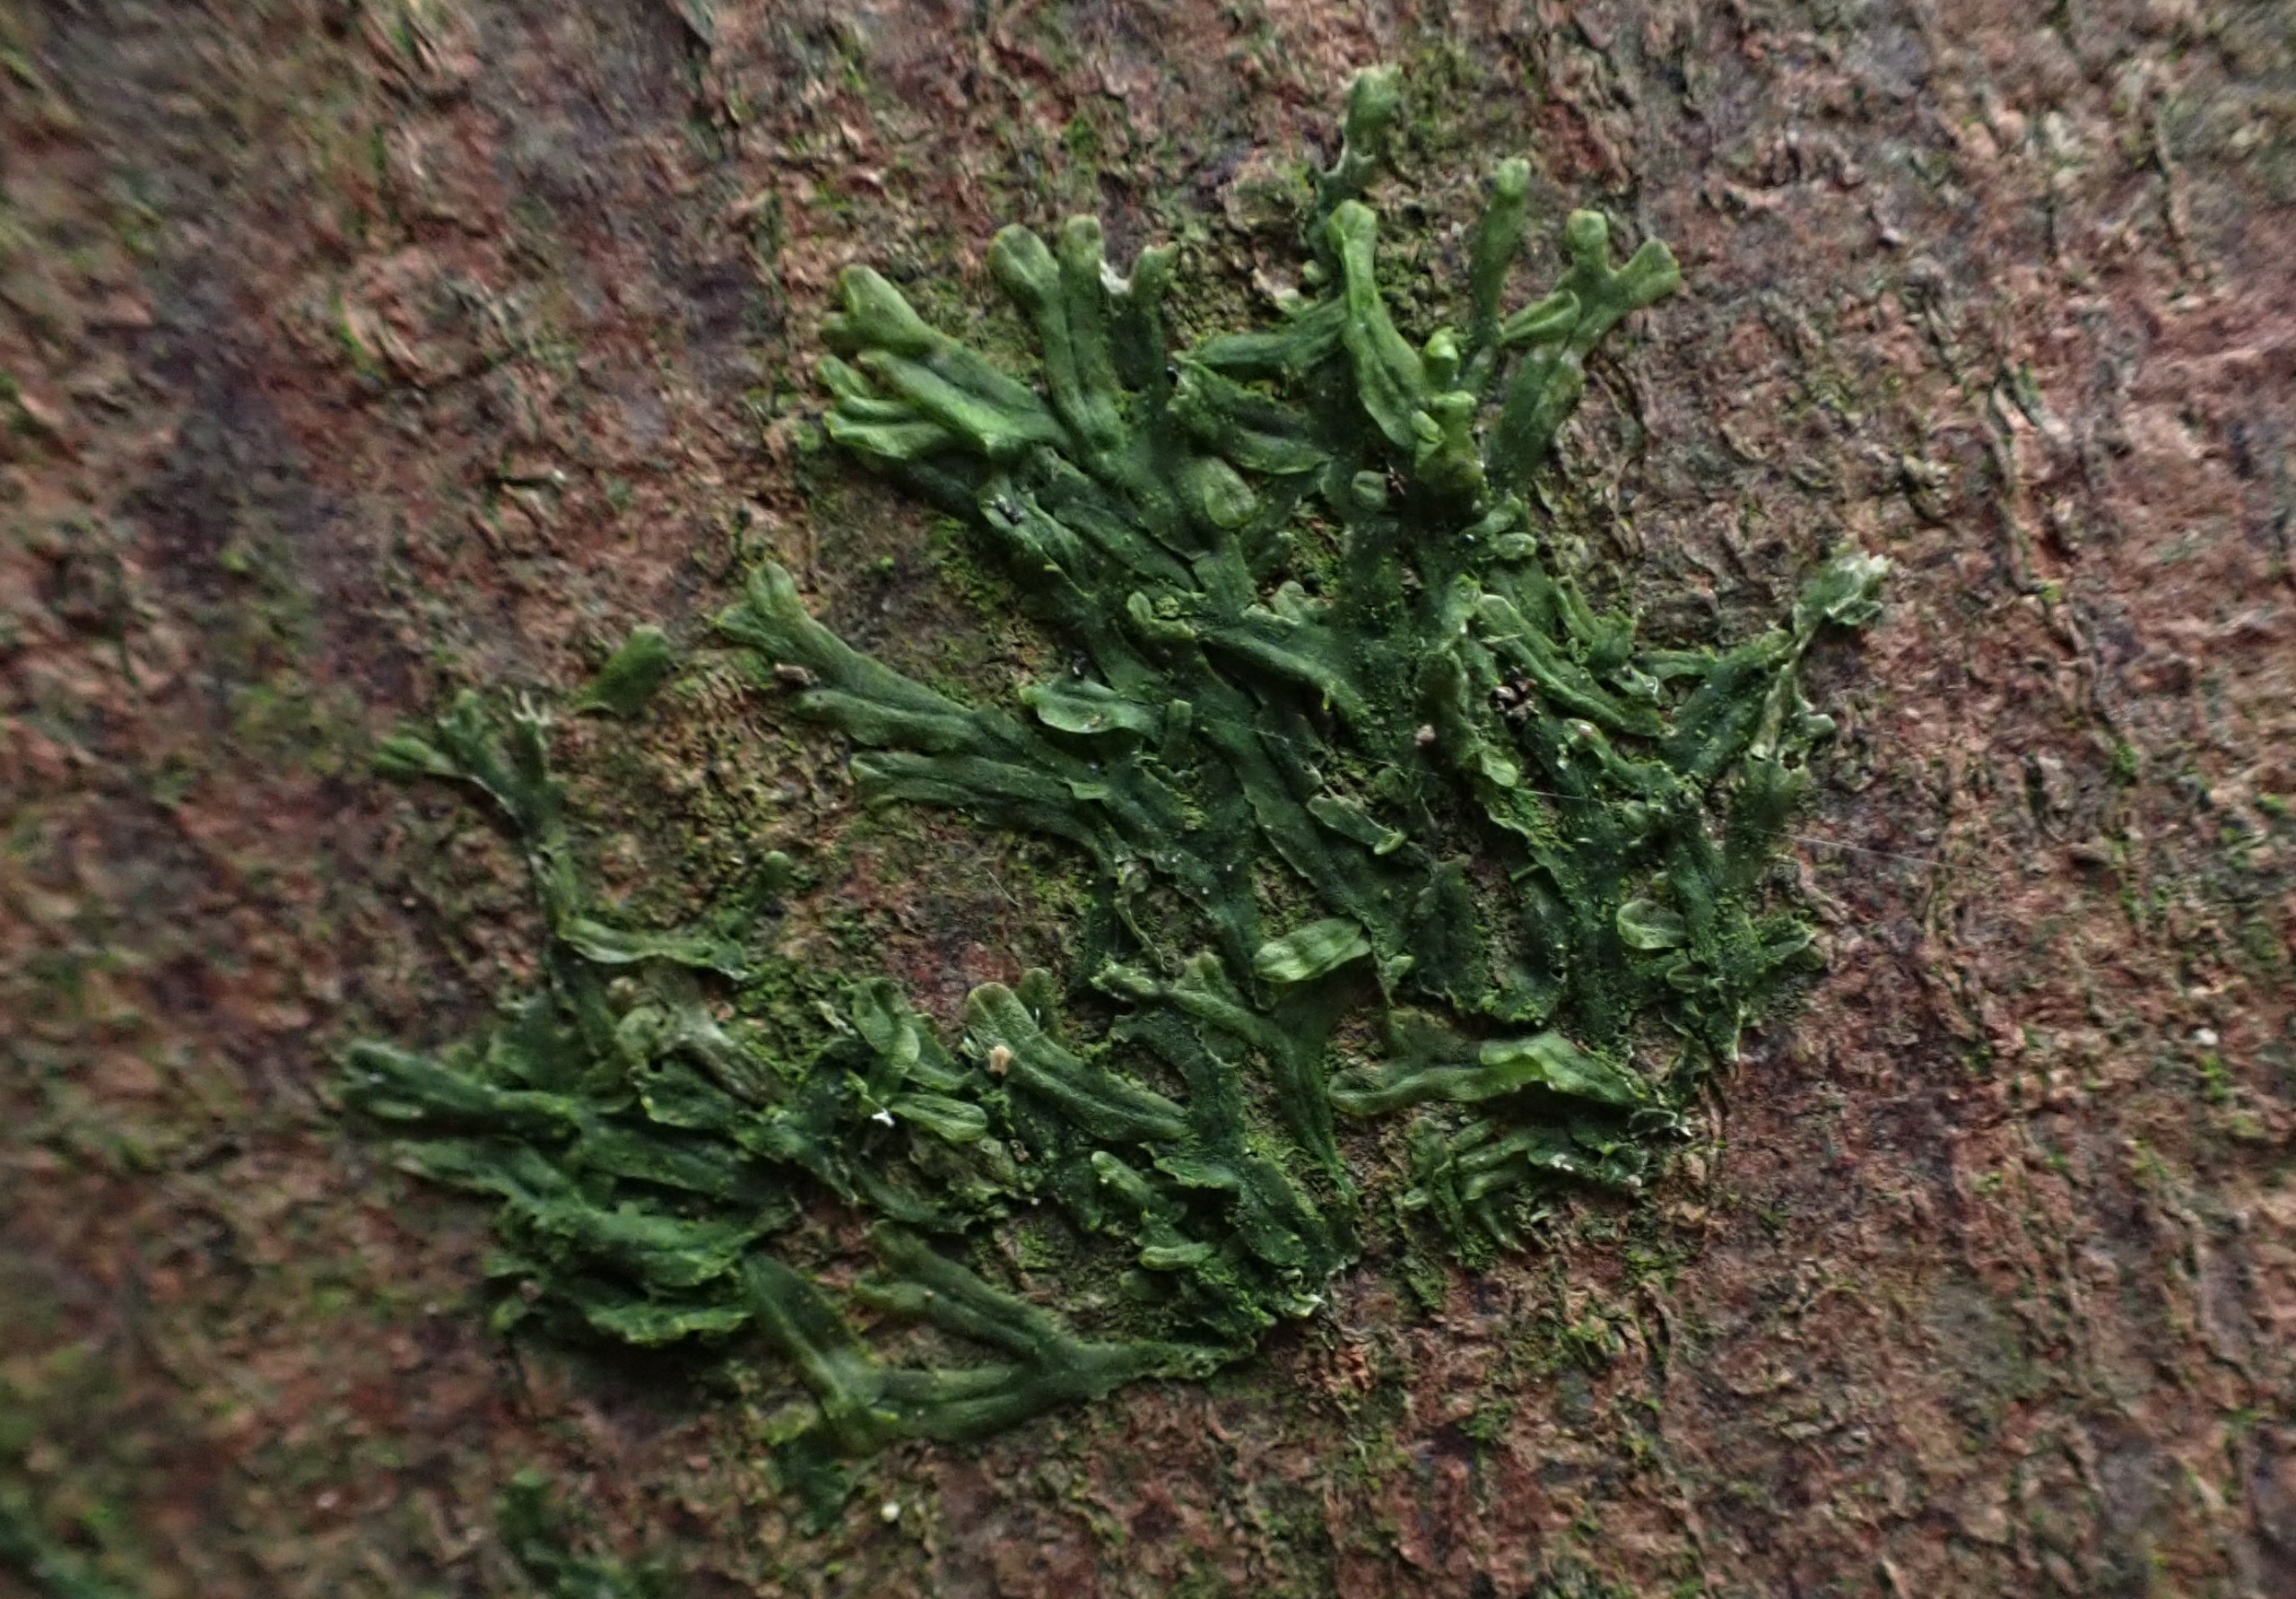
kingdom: Plantae
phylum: Marchantiophyta
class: Jungermanniopsida
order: Metzgeriales
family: Metzgeriaceae
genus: Metzgeria
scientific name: Metzgeria furcata
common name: Almindelig gaffelløv
